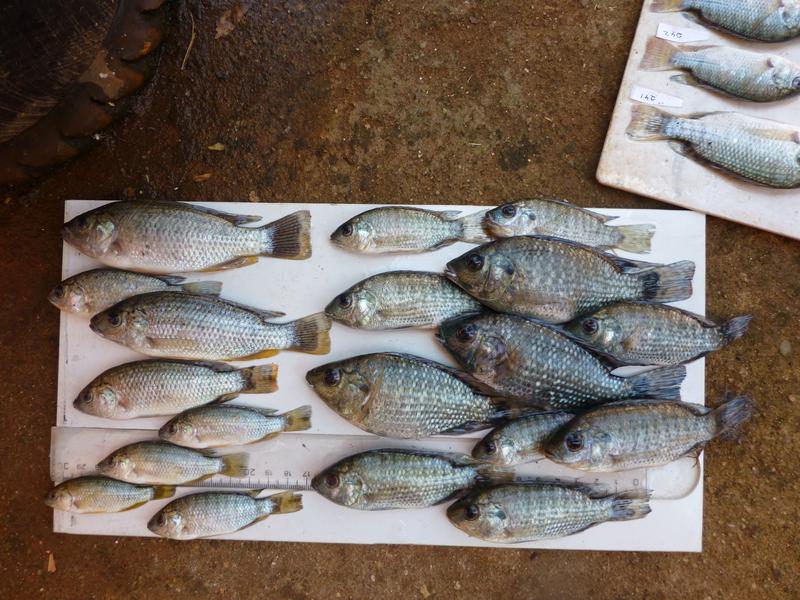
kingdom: Animalia
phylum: Chordata
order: Perciformes
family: Cichlidae
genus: Oreochromis
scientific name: Oreochromis leucostictus
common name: Blue spotted tilapia
